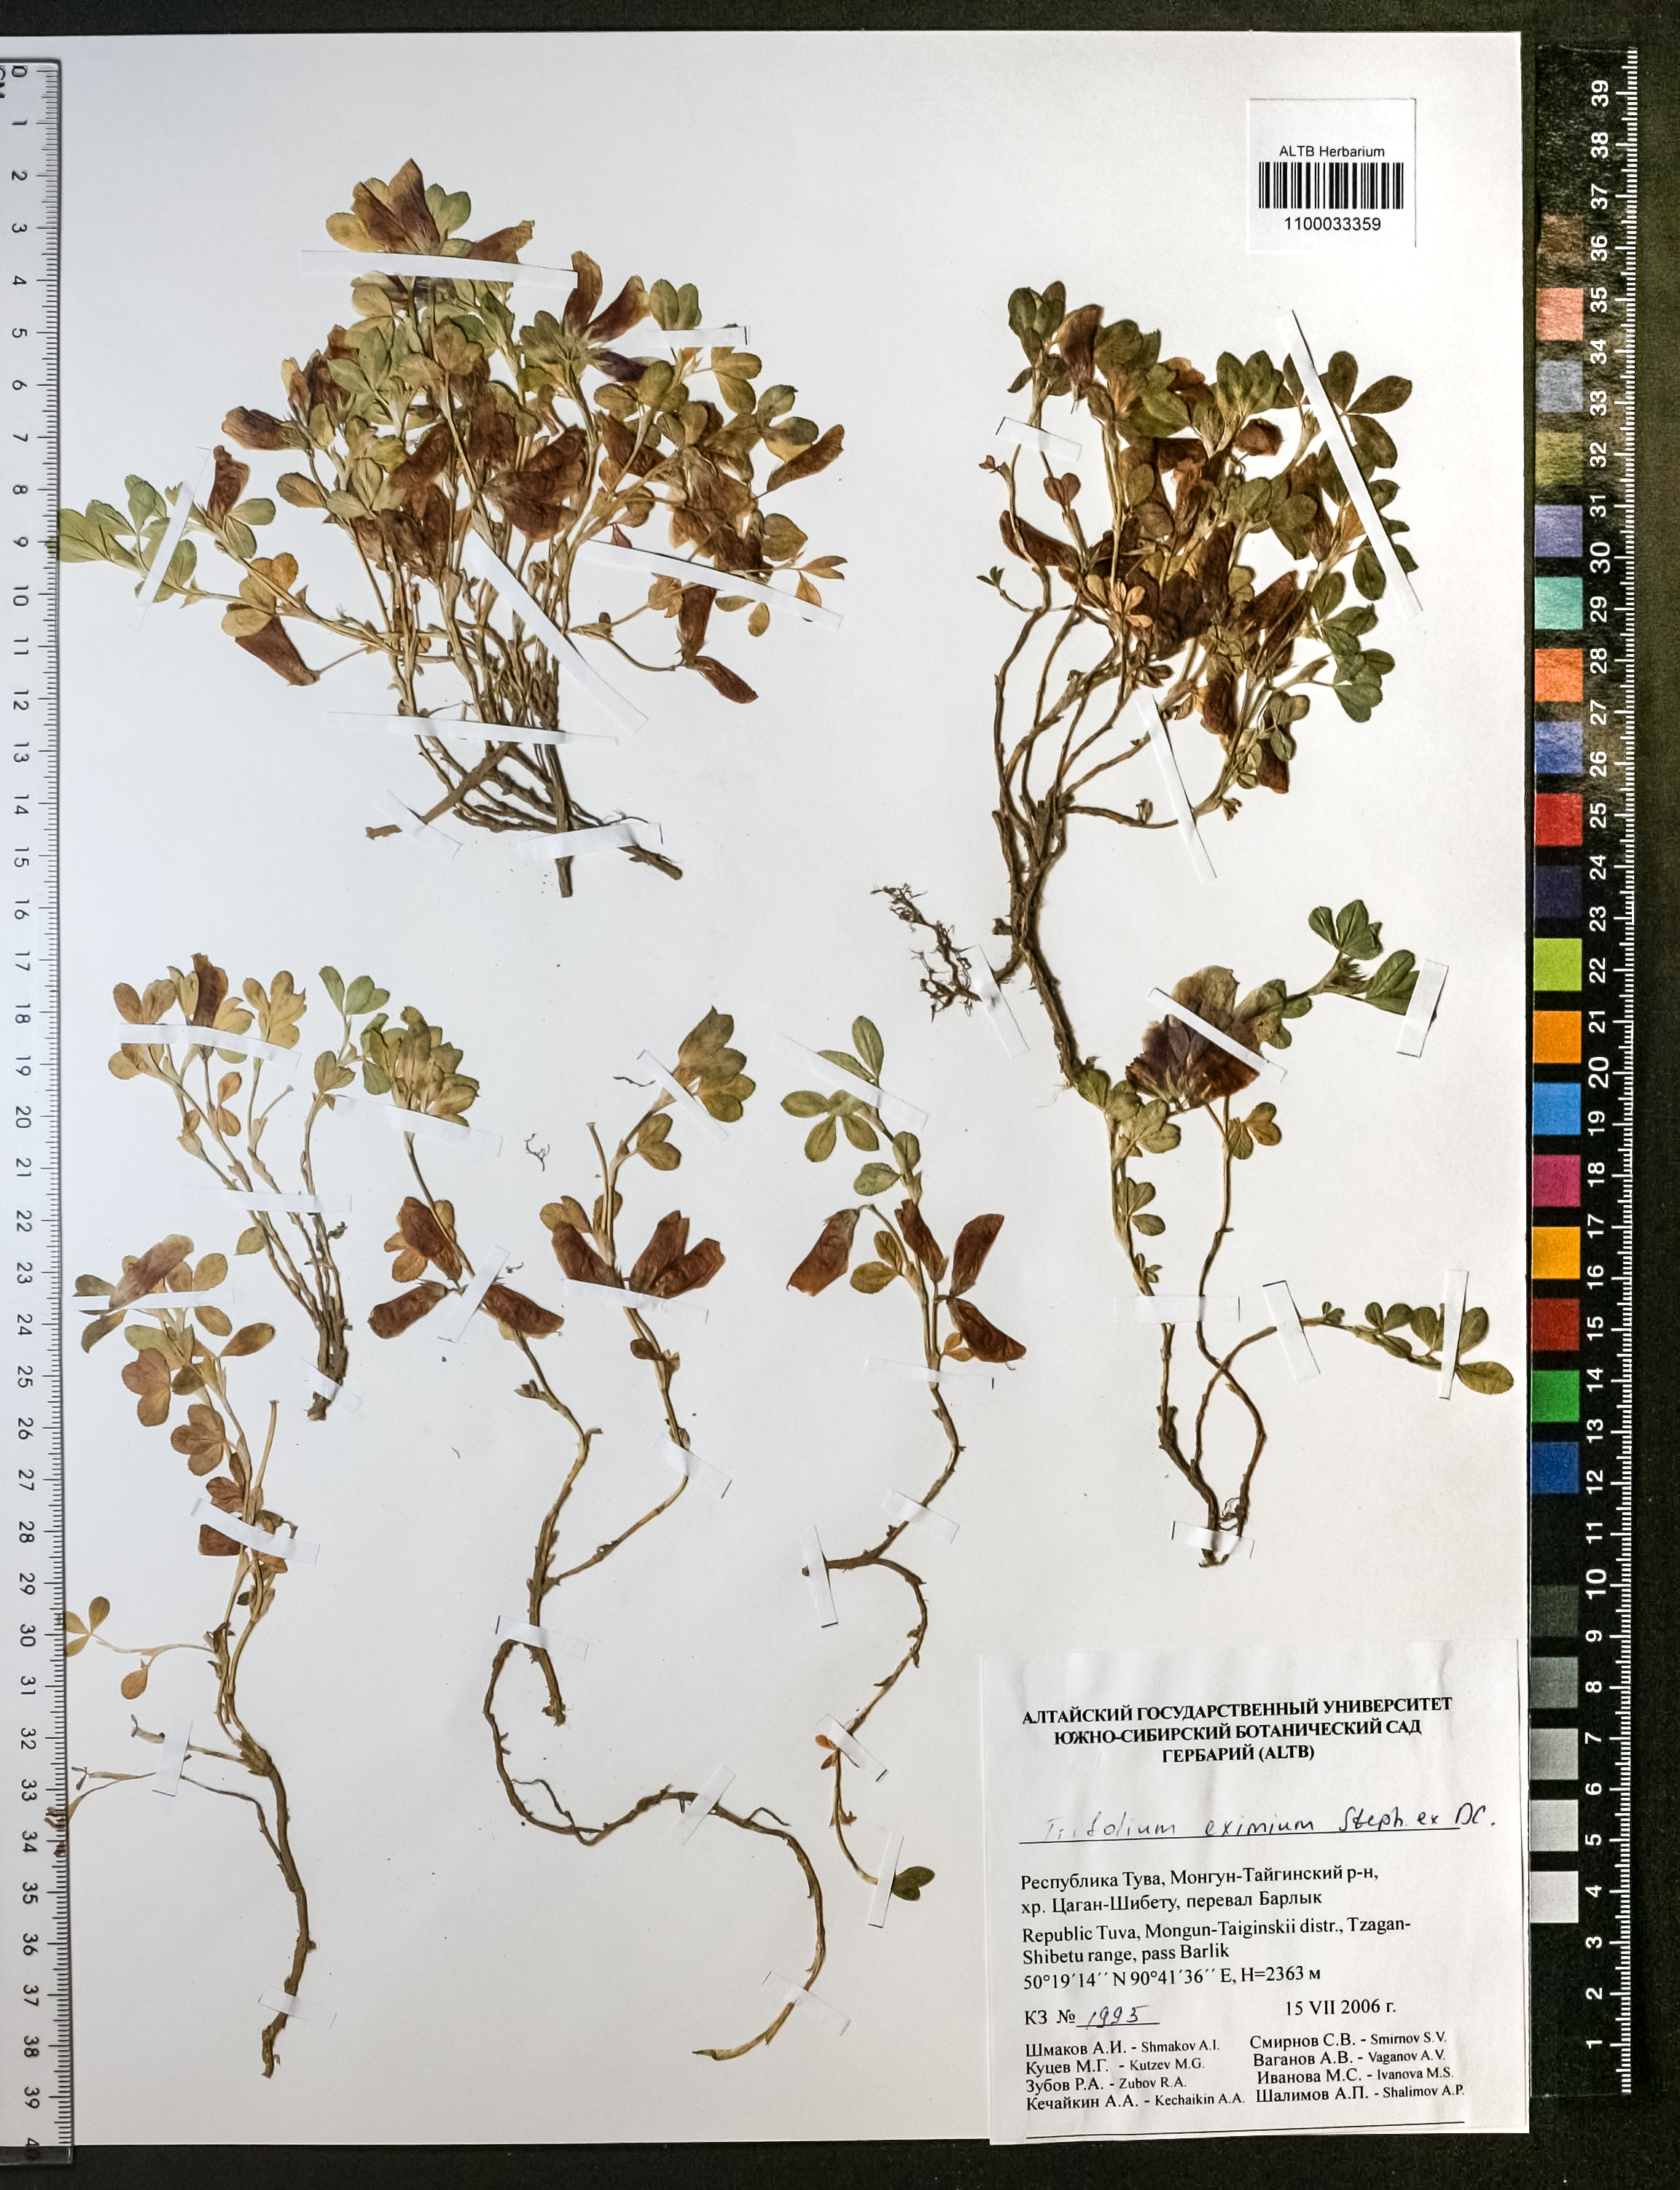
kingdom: Plantae
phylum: Tracheophyta
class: Magnoliopsida
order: Fabales
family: Fabaceae
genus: Trifolium
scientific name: Trifolium eximium
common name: Excellent clover
